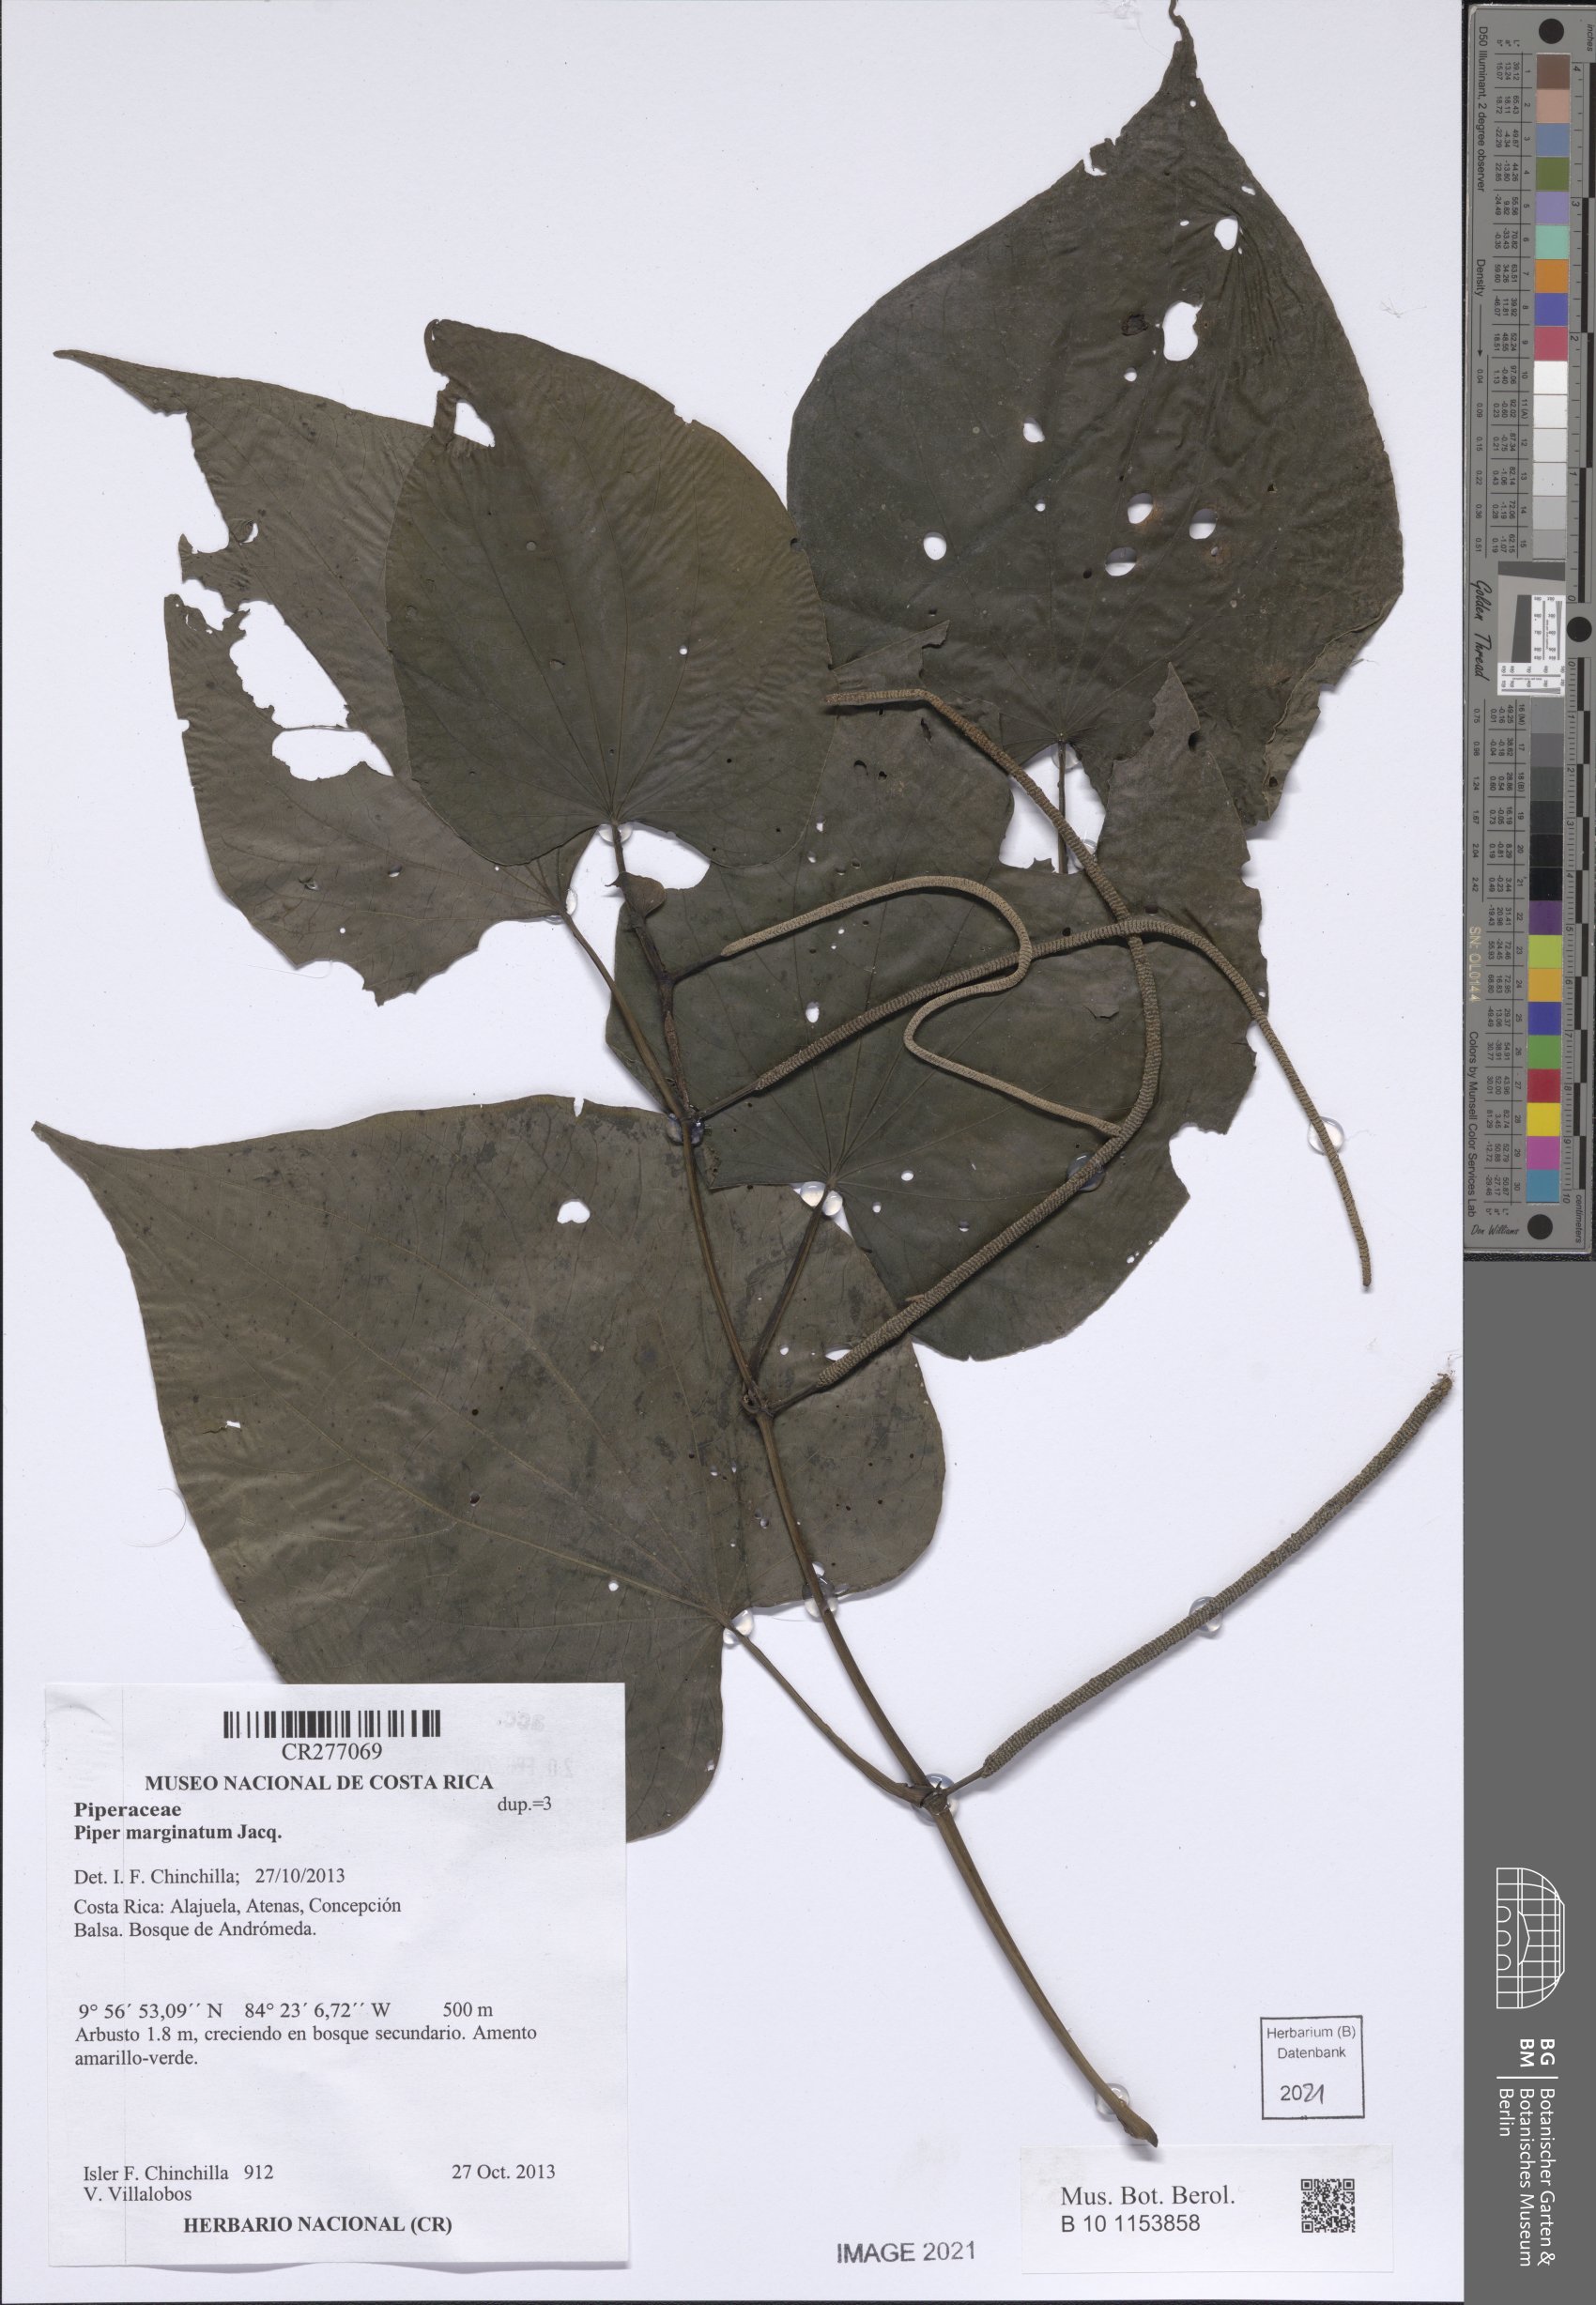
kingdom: Plantae
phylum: Tracheophyta
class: Magnoliopsida
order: Piperales
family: Piperaceae
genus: Piper
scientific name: Piper marginatum
